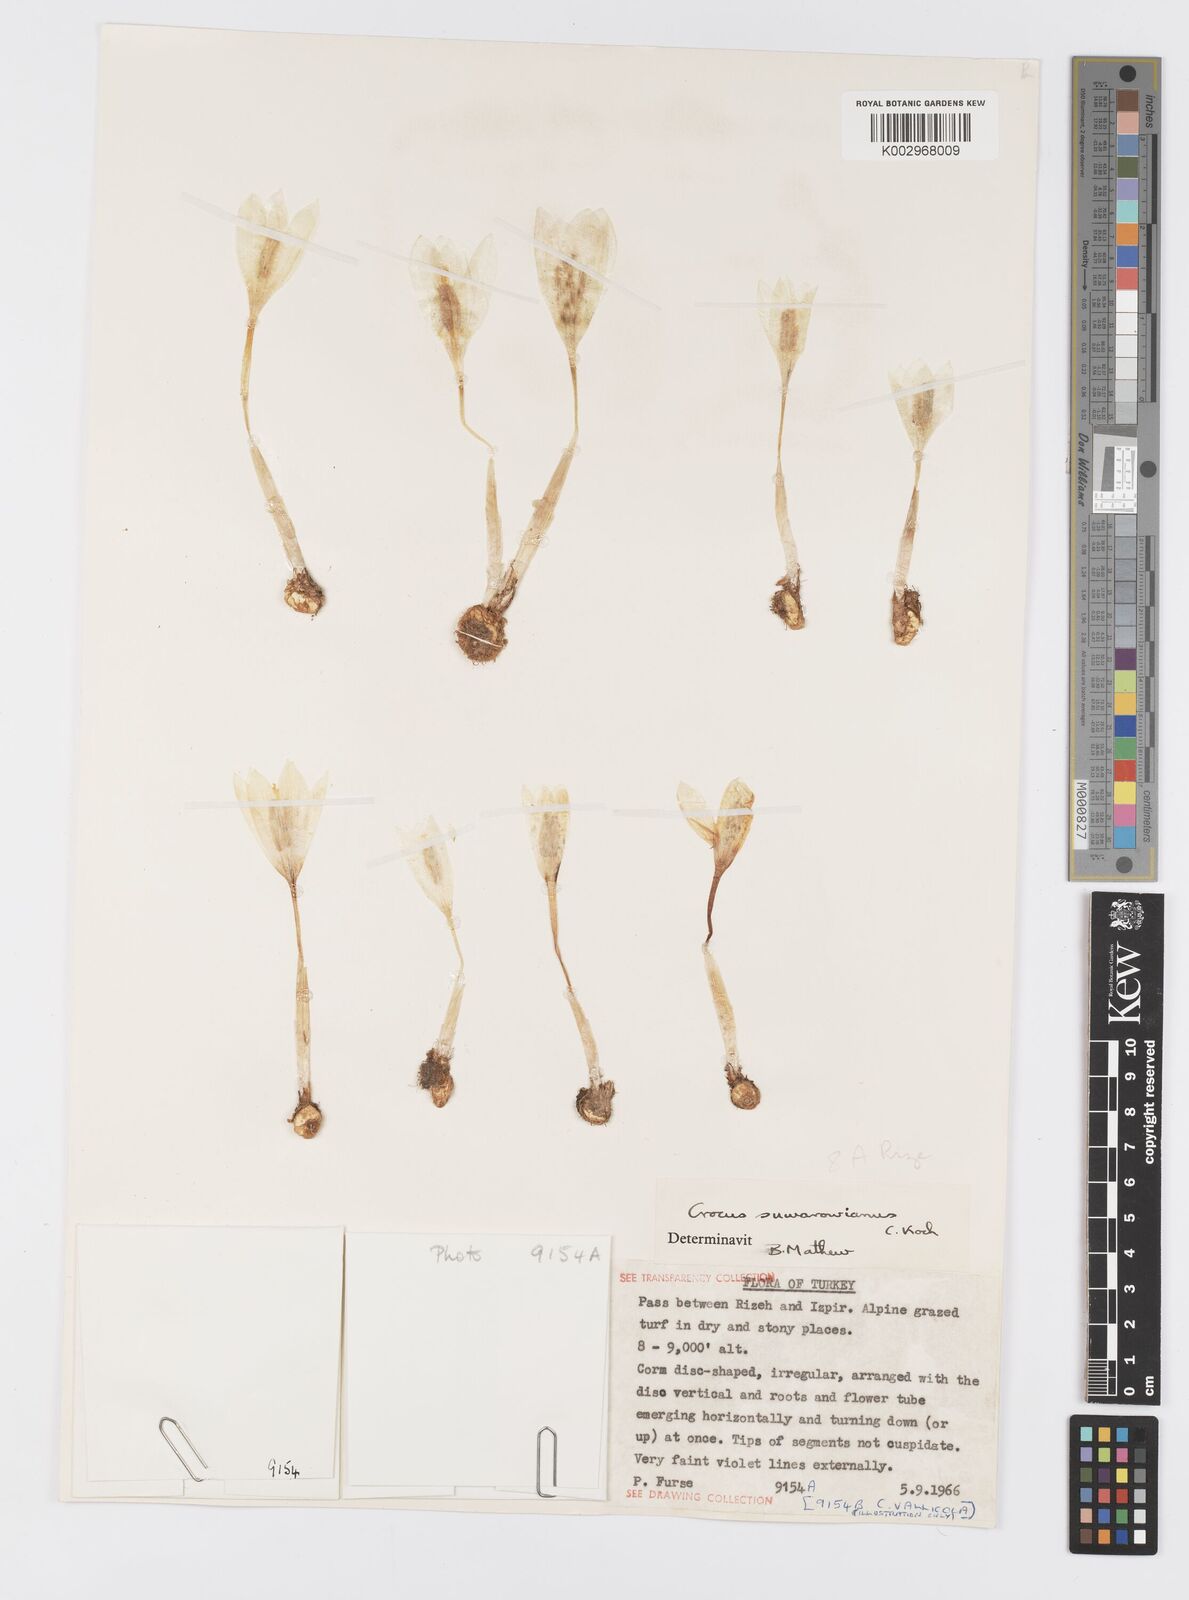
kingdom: Plantae
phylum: Tracheophyta
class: Liliopsida
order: Asparagales
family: Iridaceae
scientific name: Iridaceae
